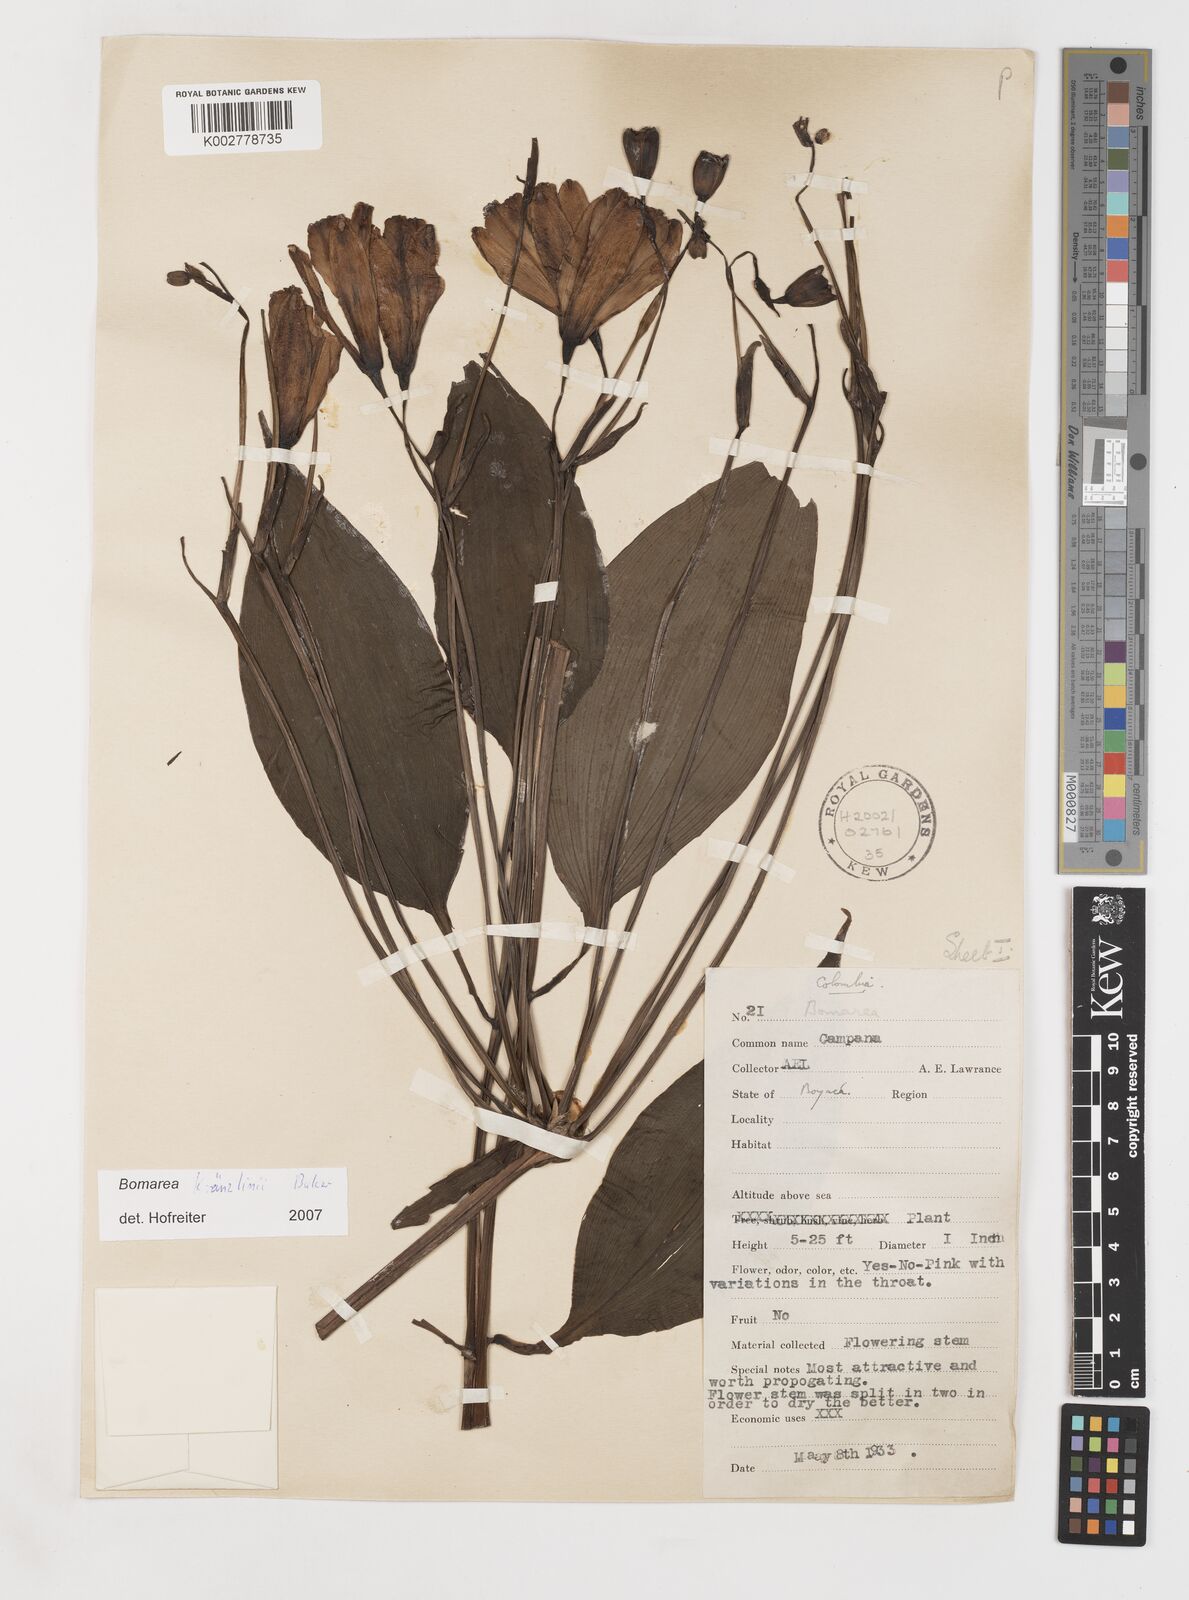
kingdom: Plantae
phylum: Tracheophyta
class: Liliopsida
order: Liliales
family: Alstroemeriaceae
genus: Bomarea
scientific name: Bomarea kraenzlinii
